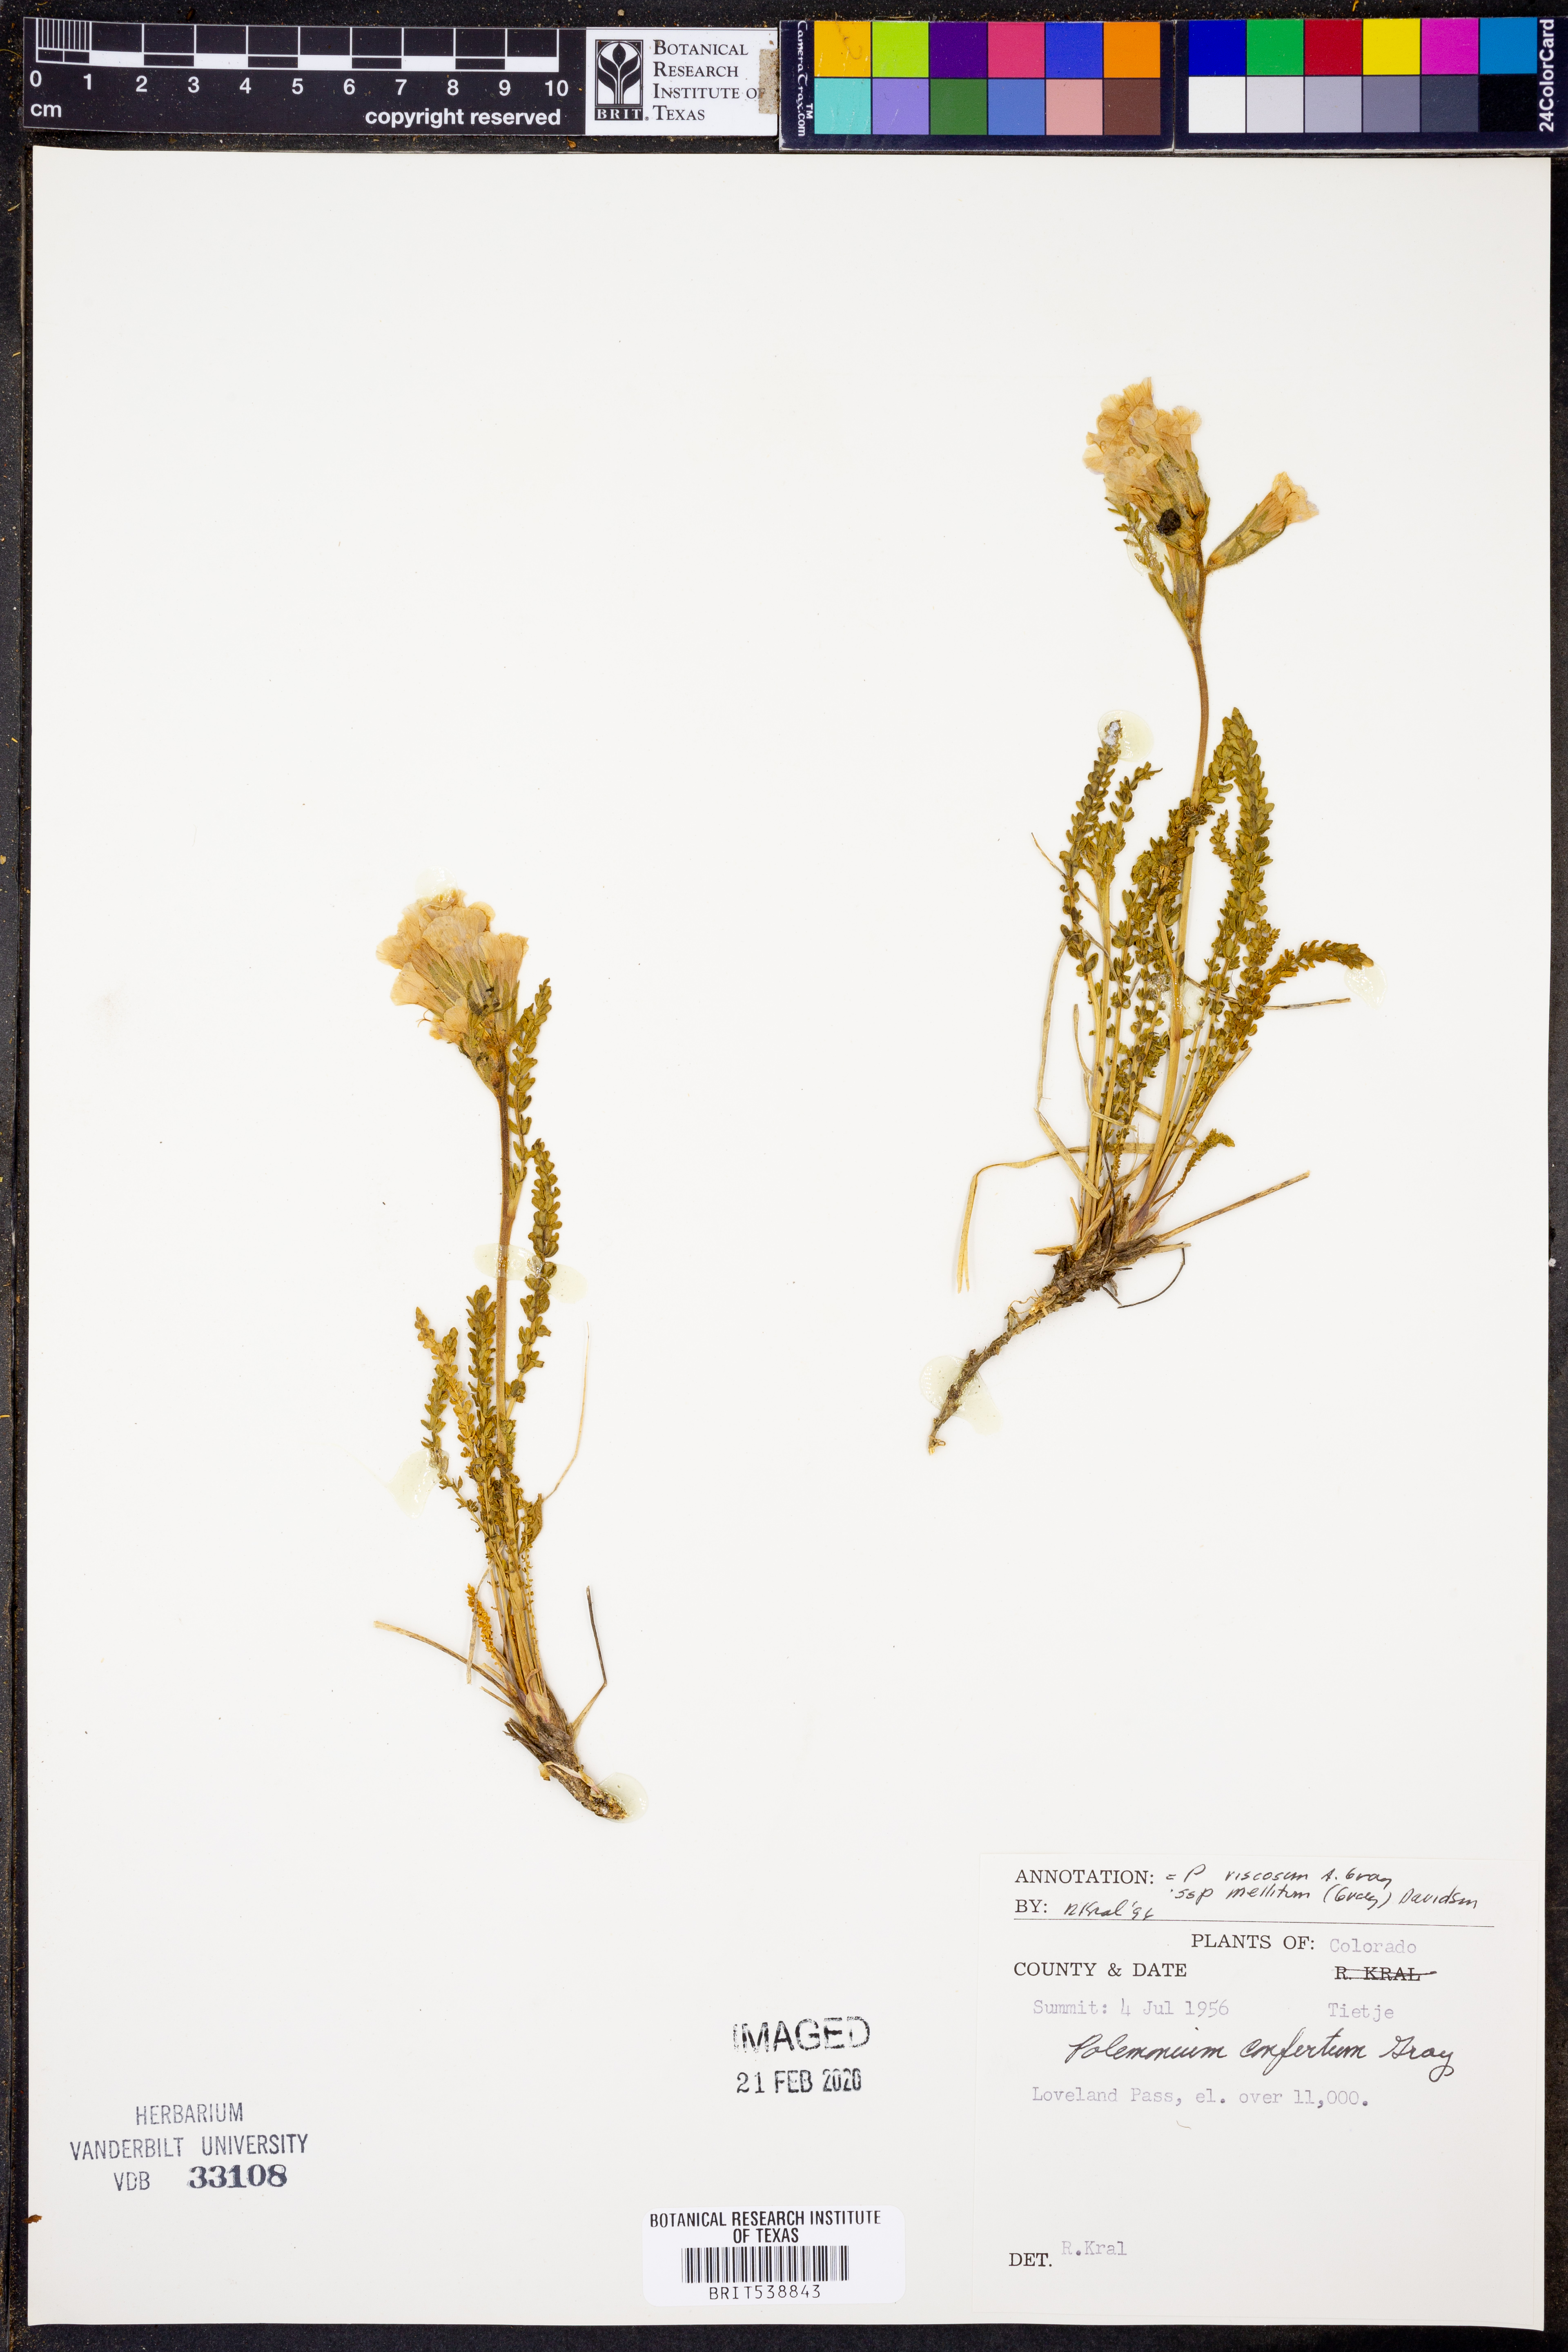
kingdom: Plantae
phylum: Tracheophyta
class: Magnoliopsida
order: Ericales
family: Polemoniaceae
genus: Polemonium
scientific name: Polemonium brandegeei
